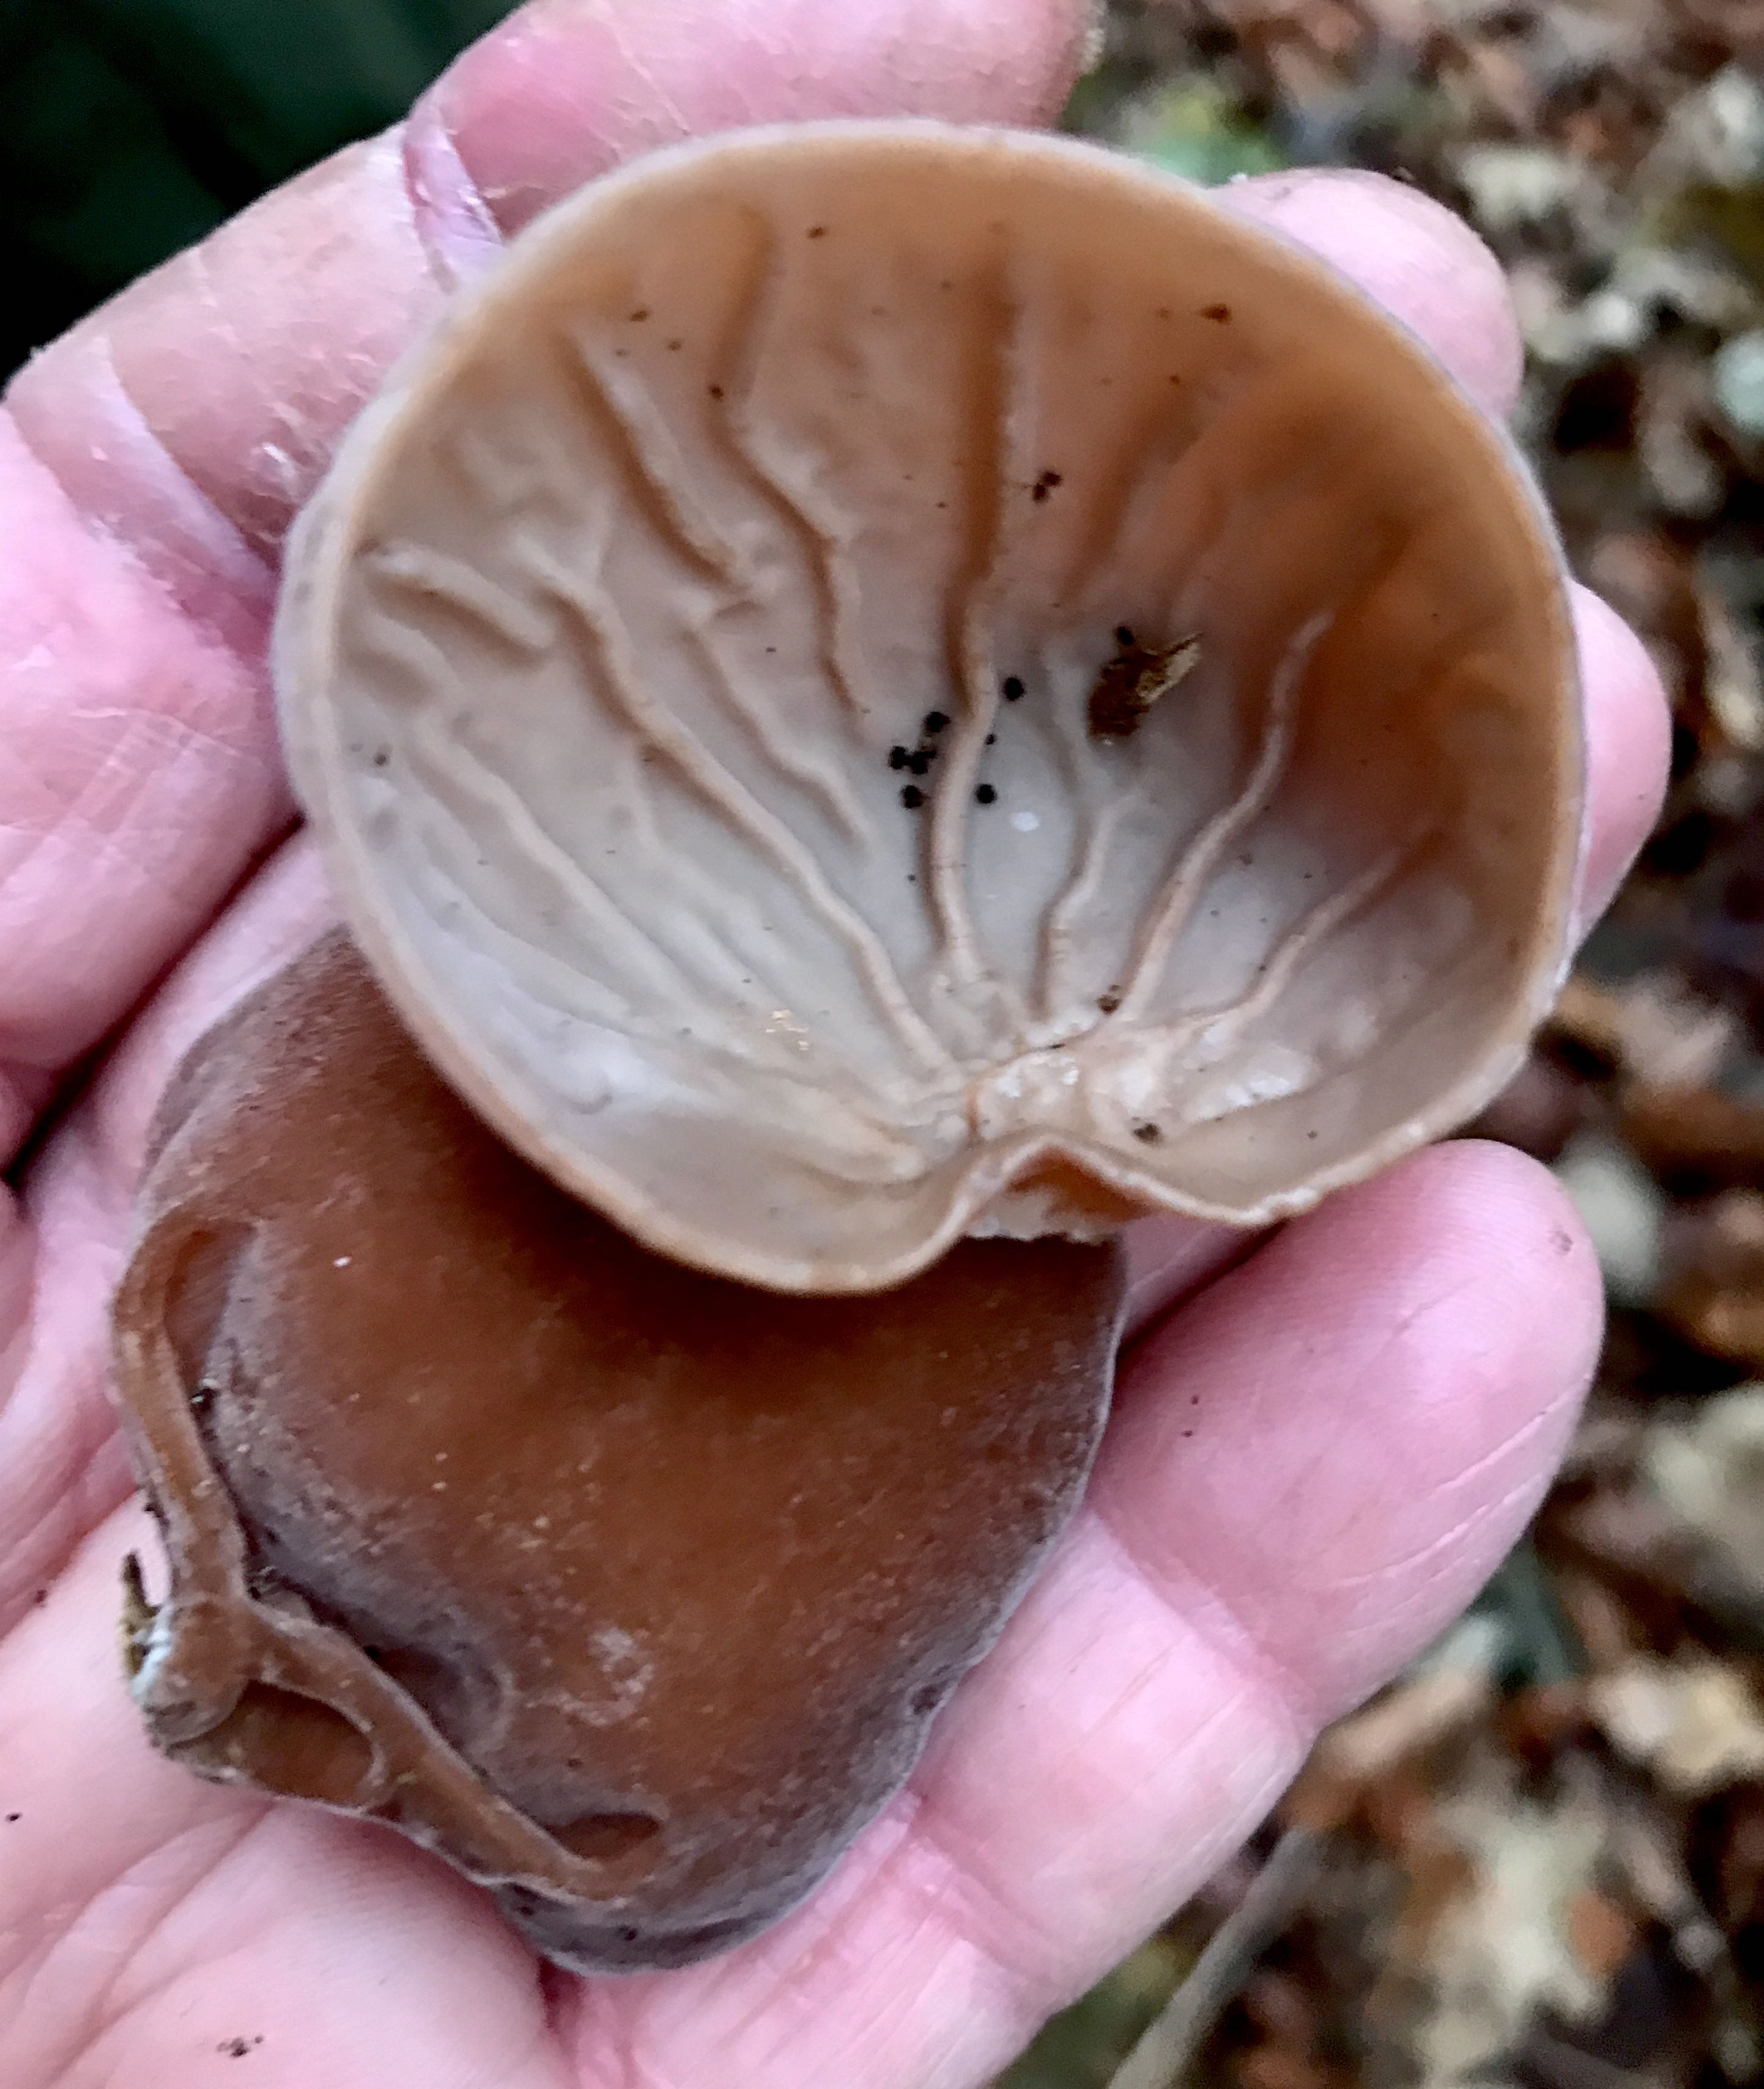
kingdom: Fungi
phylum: Basidiomycota
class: Agaricomycetes
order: Auriculariales
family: Auriculariaceae
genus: Auricularia
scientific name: Auricularia auricula-judae
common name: almindelig judasøre
